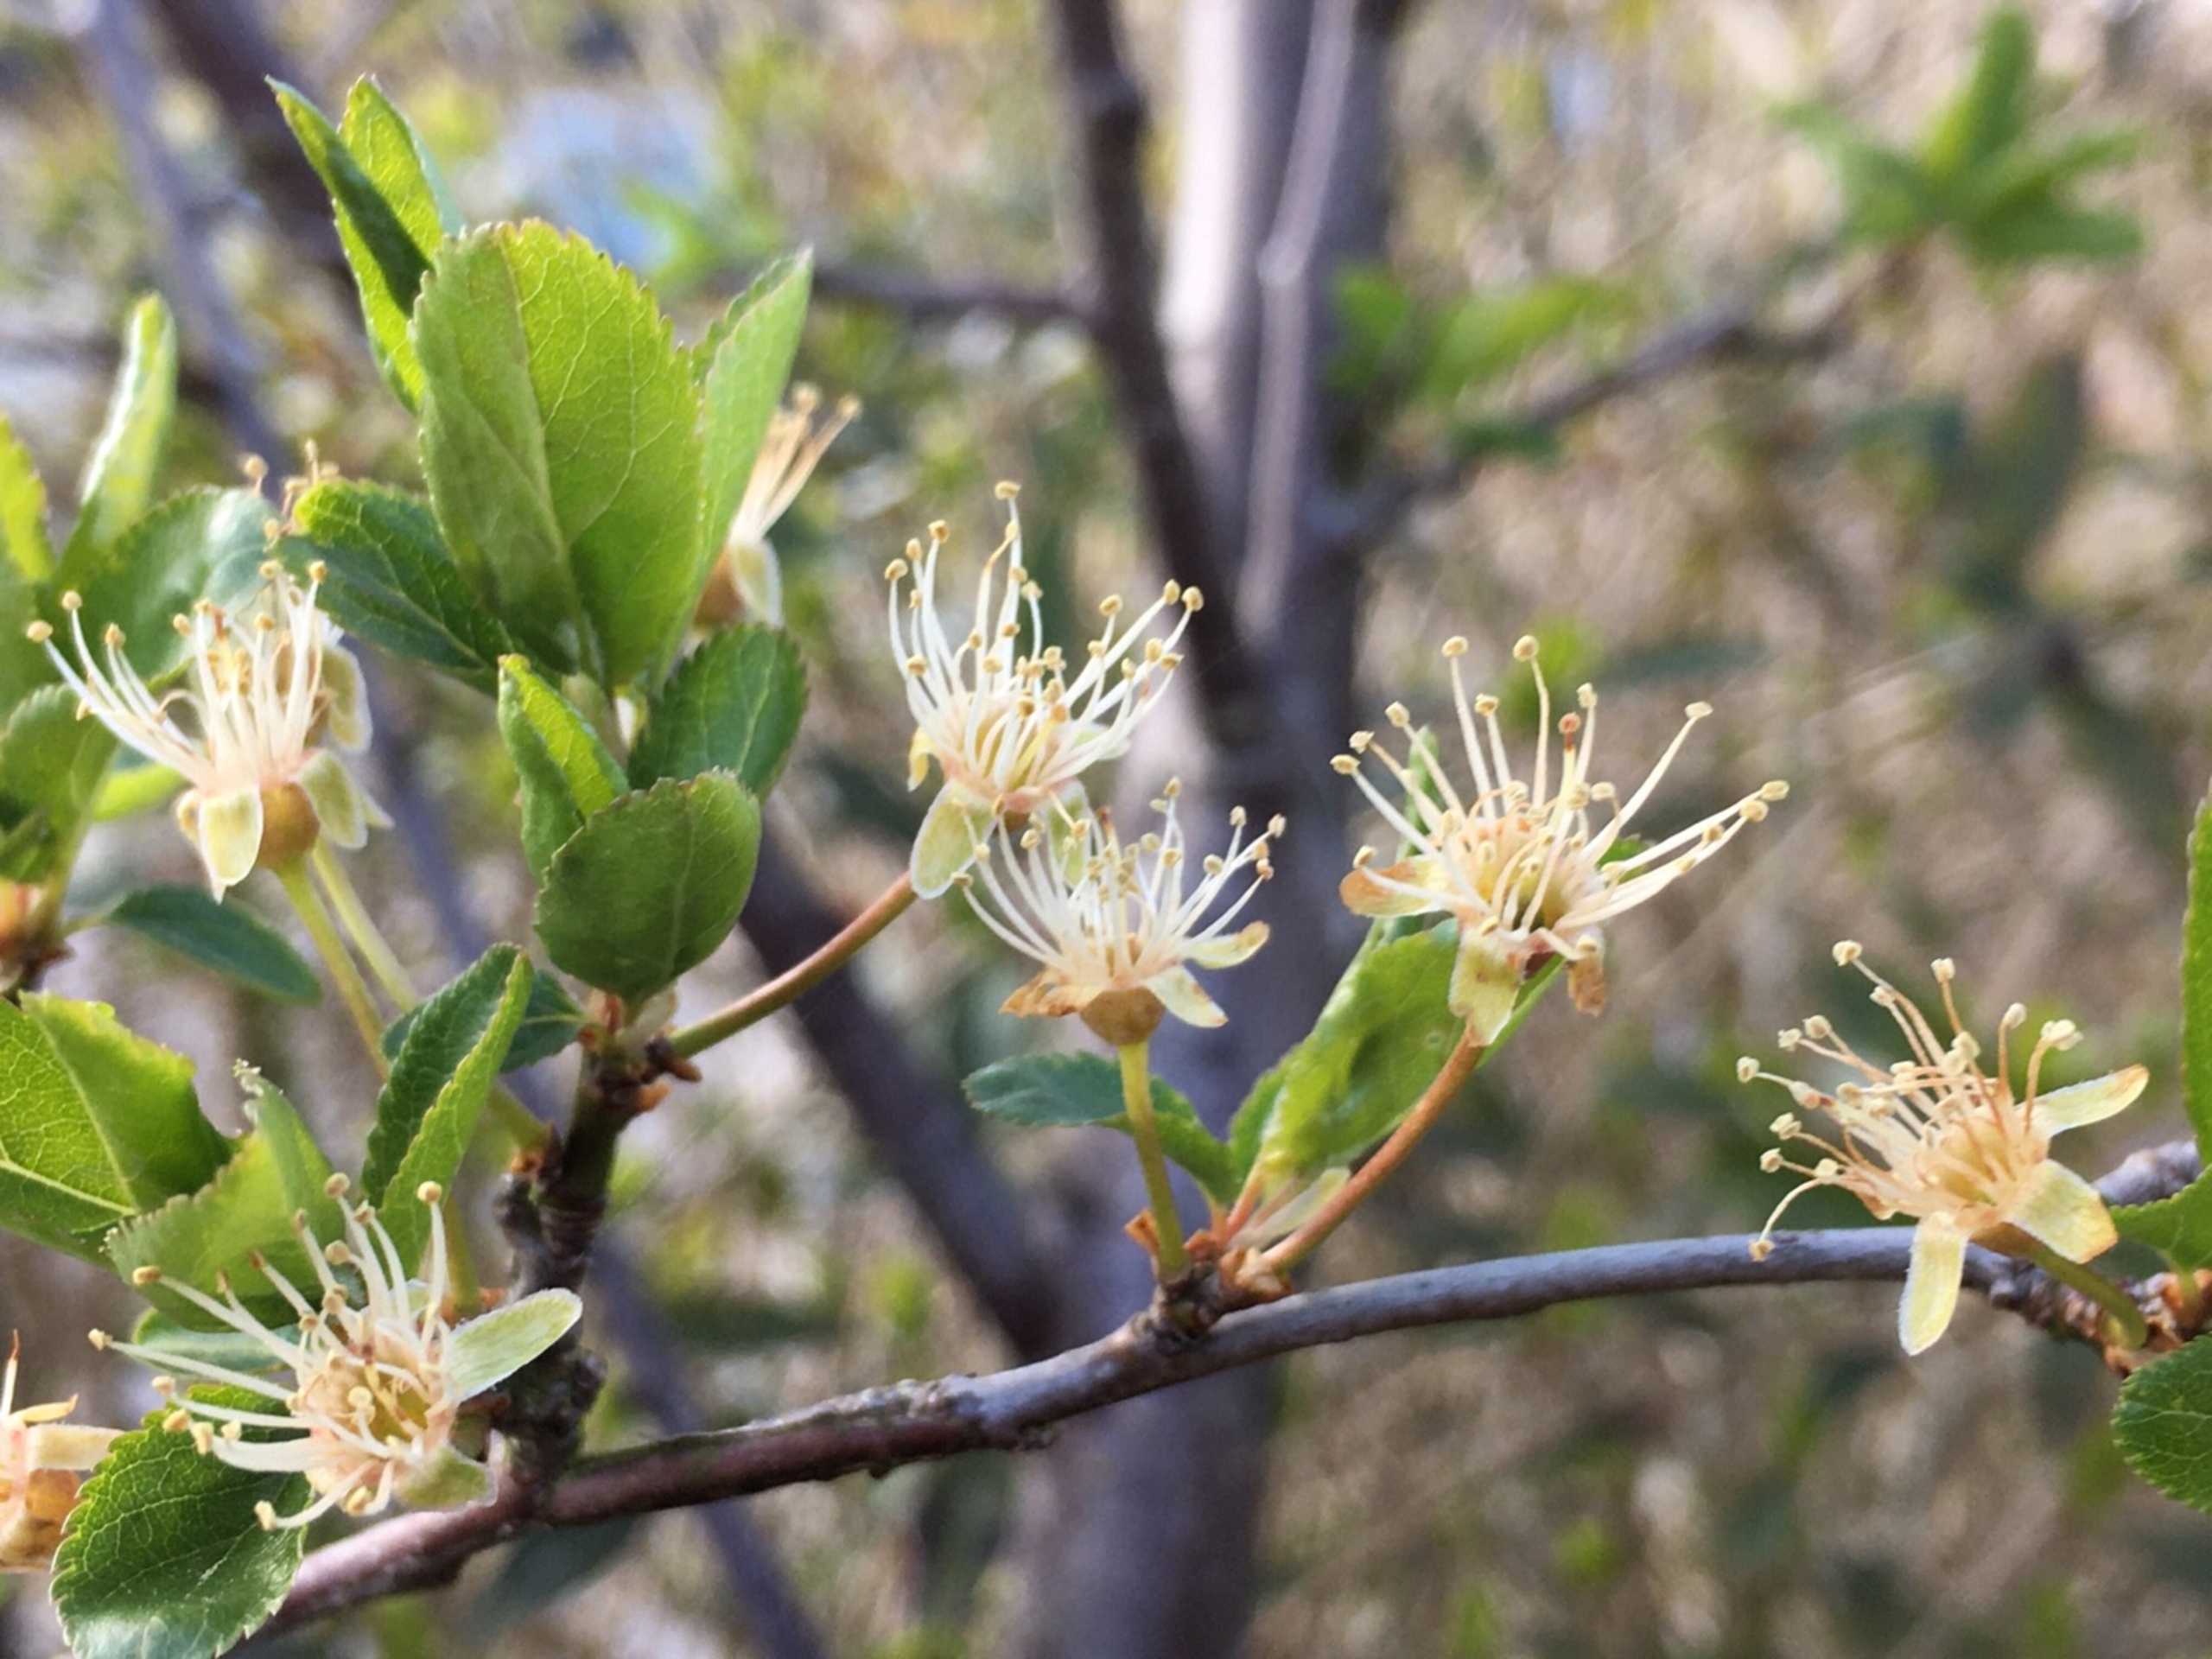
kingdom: Plantae
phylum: Tracheophyta
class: Magnoliopsida
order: Rosales
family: Rosaceae
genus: Prunus
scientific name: Prunus cerasifera
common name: Mirabel
